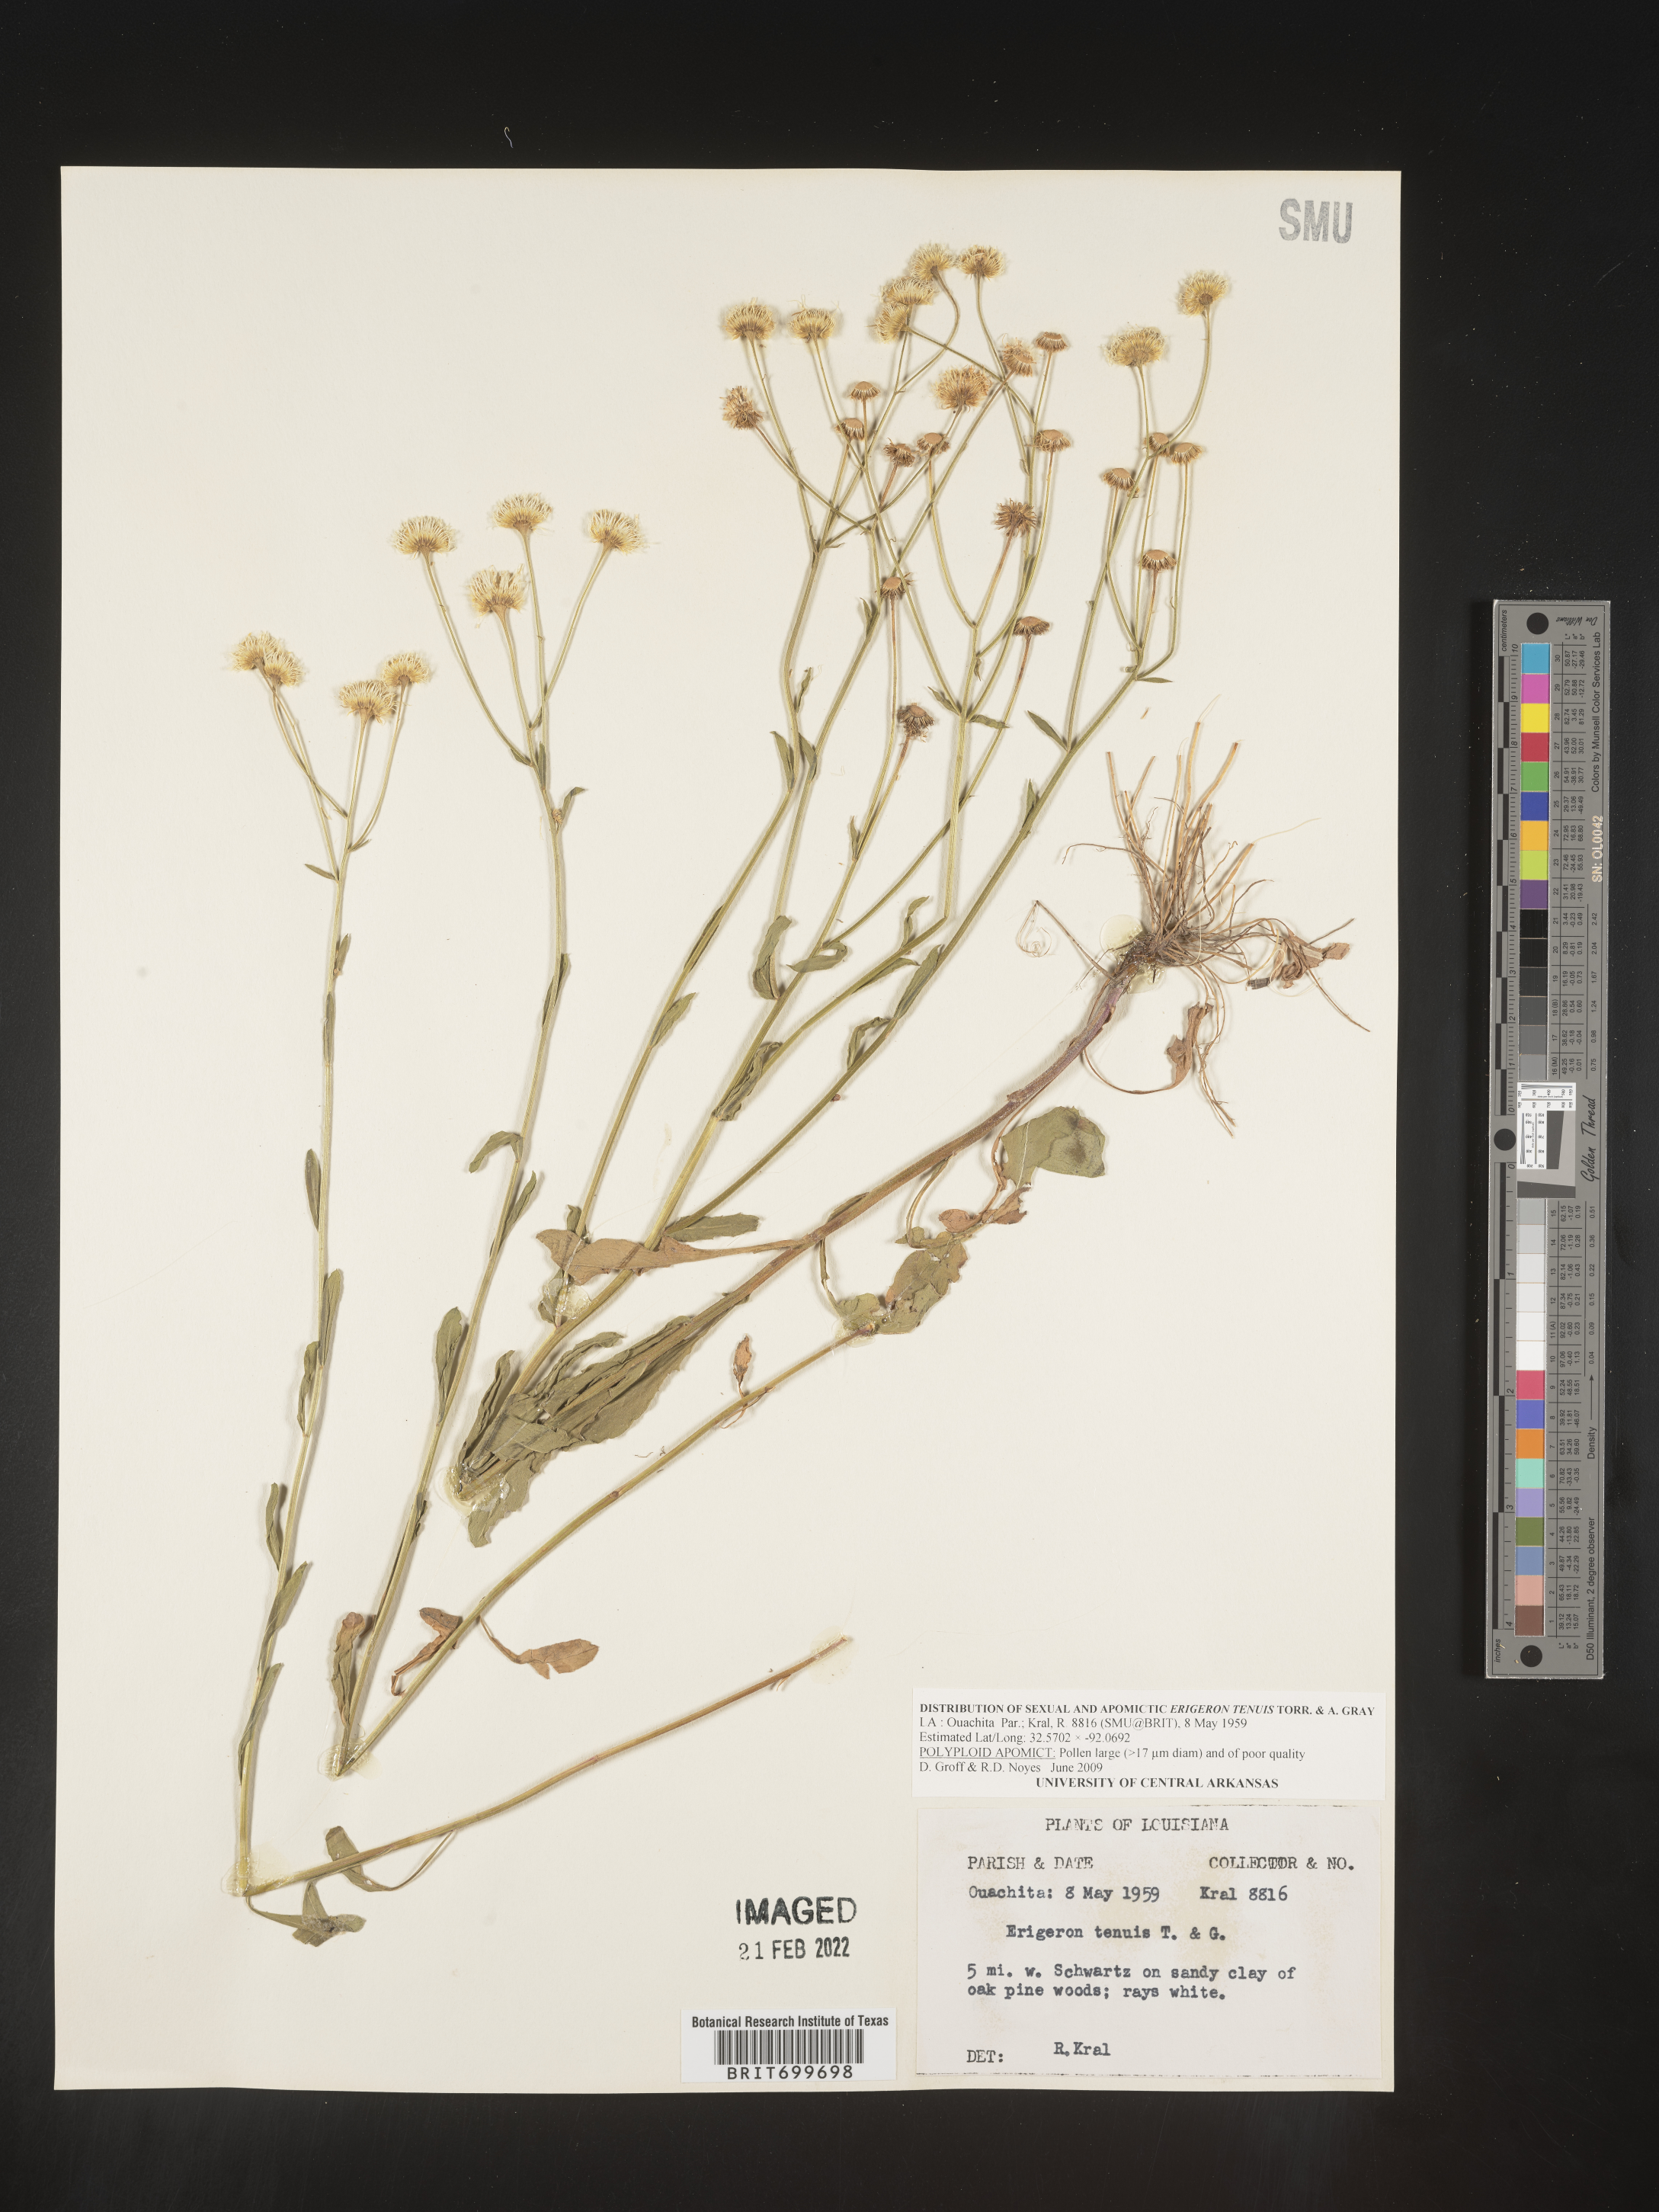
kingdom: Plantae
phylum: Tracheophyta
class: Magnoliopsida
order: Asterales
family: Asteraceae
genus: Erigeron
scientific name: Erigeron tenuis
